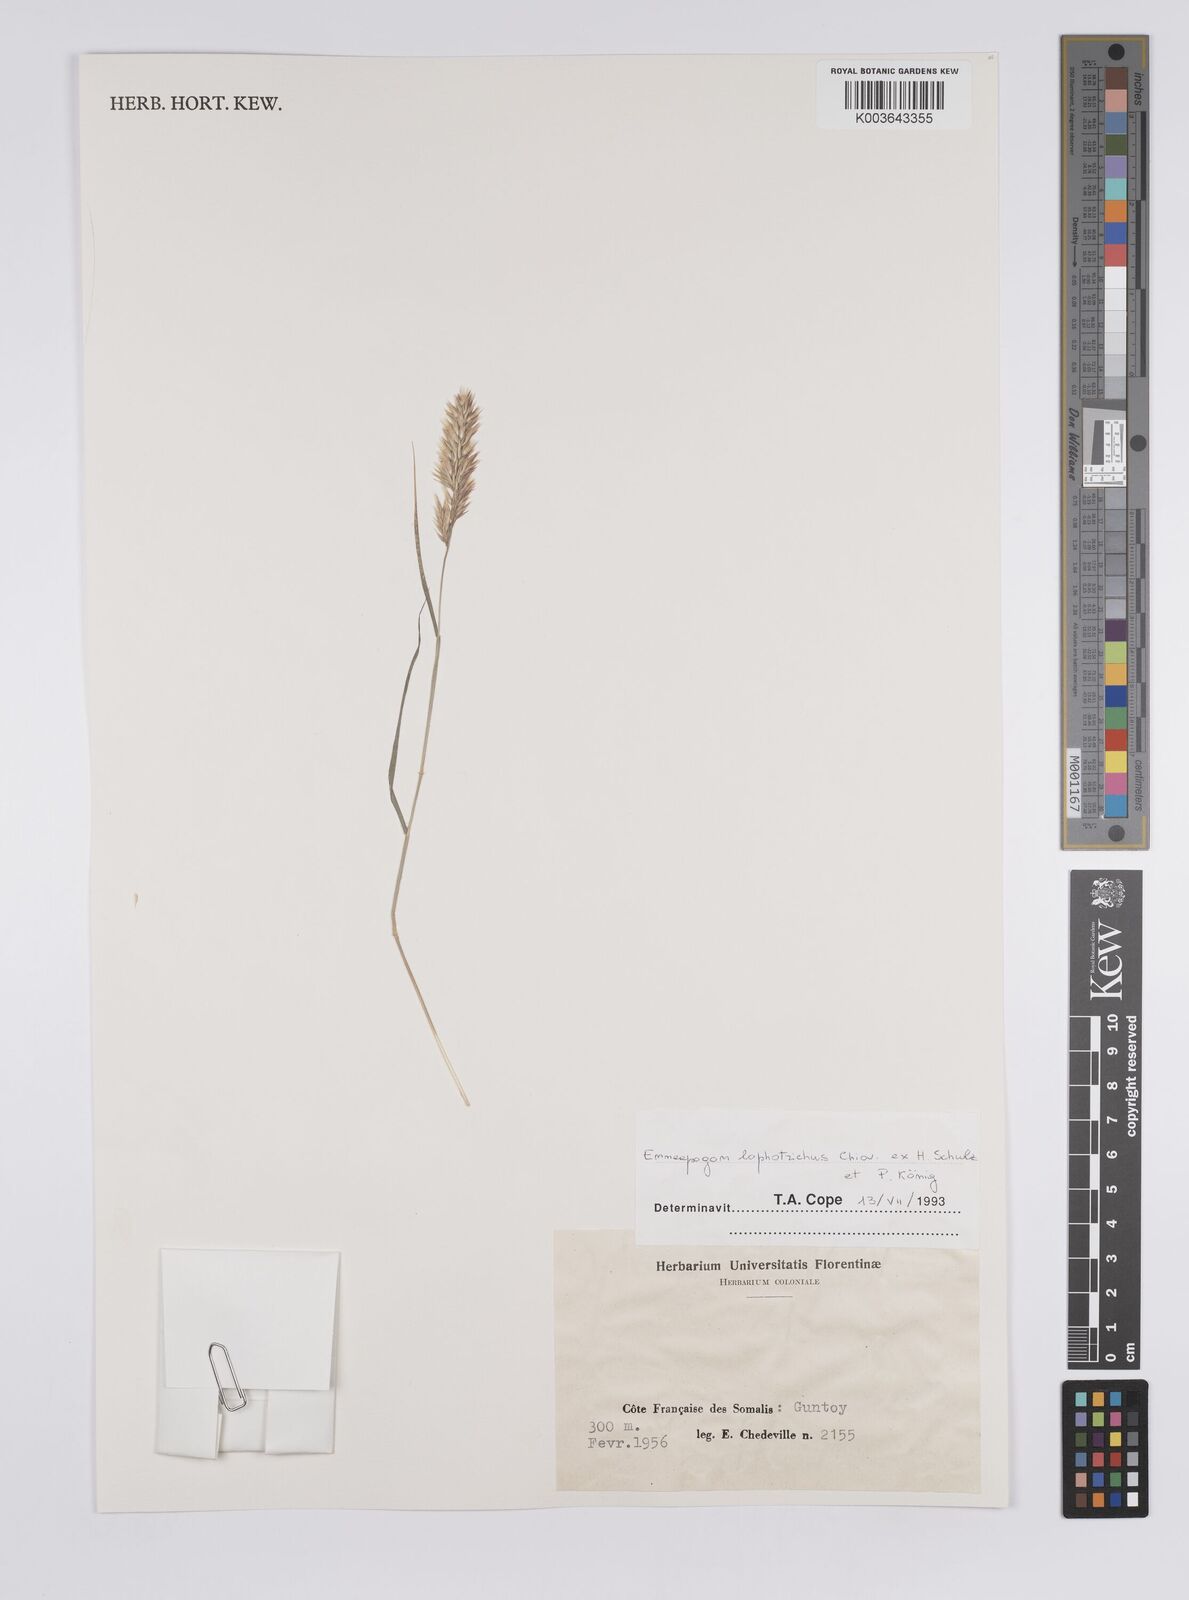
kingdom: Plantae
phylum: Tracheophyta
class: Liliopsida
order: Poales
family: Poaceae
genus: Enneapogon
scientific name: Enneapogon lophotrichus
